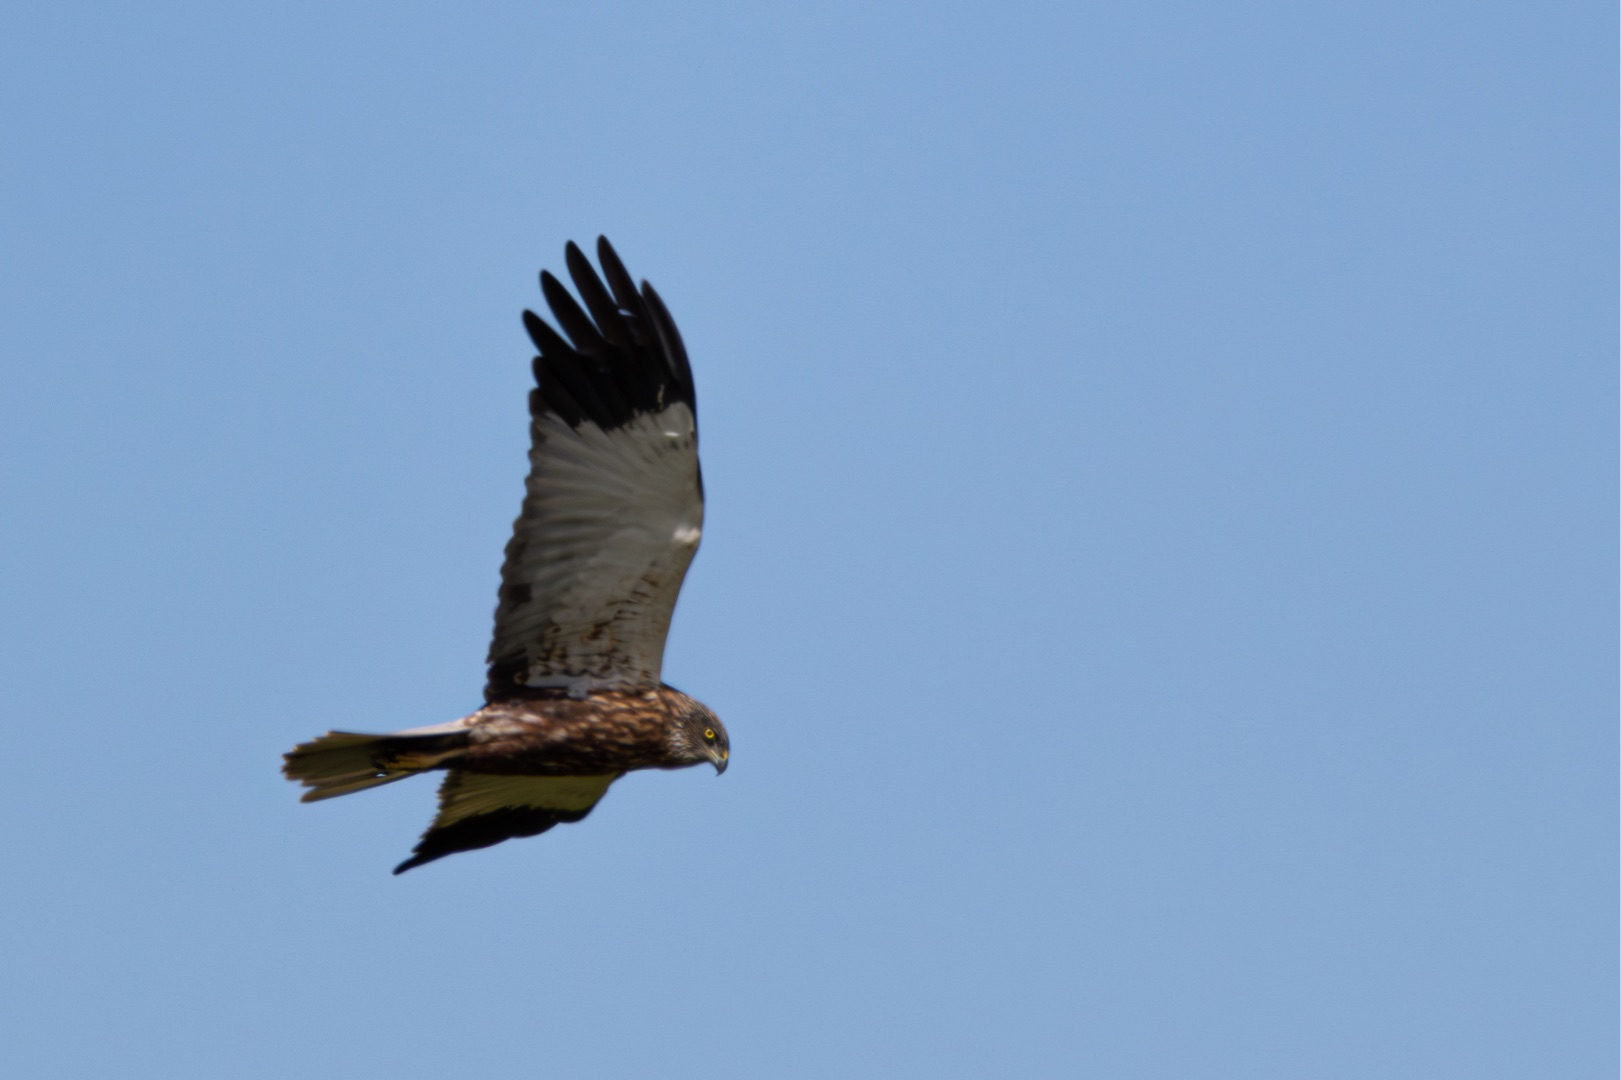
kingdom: Animalia
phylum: Chordata
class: Aves
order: Accipitriformes
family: Accipitridae
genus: Circus
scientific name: Circus aeruginosus
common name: Rørhøg
